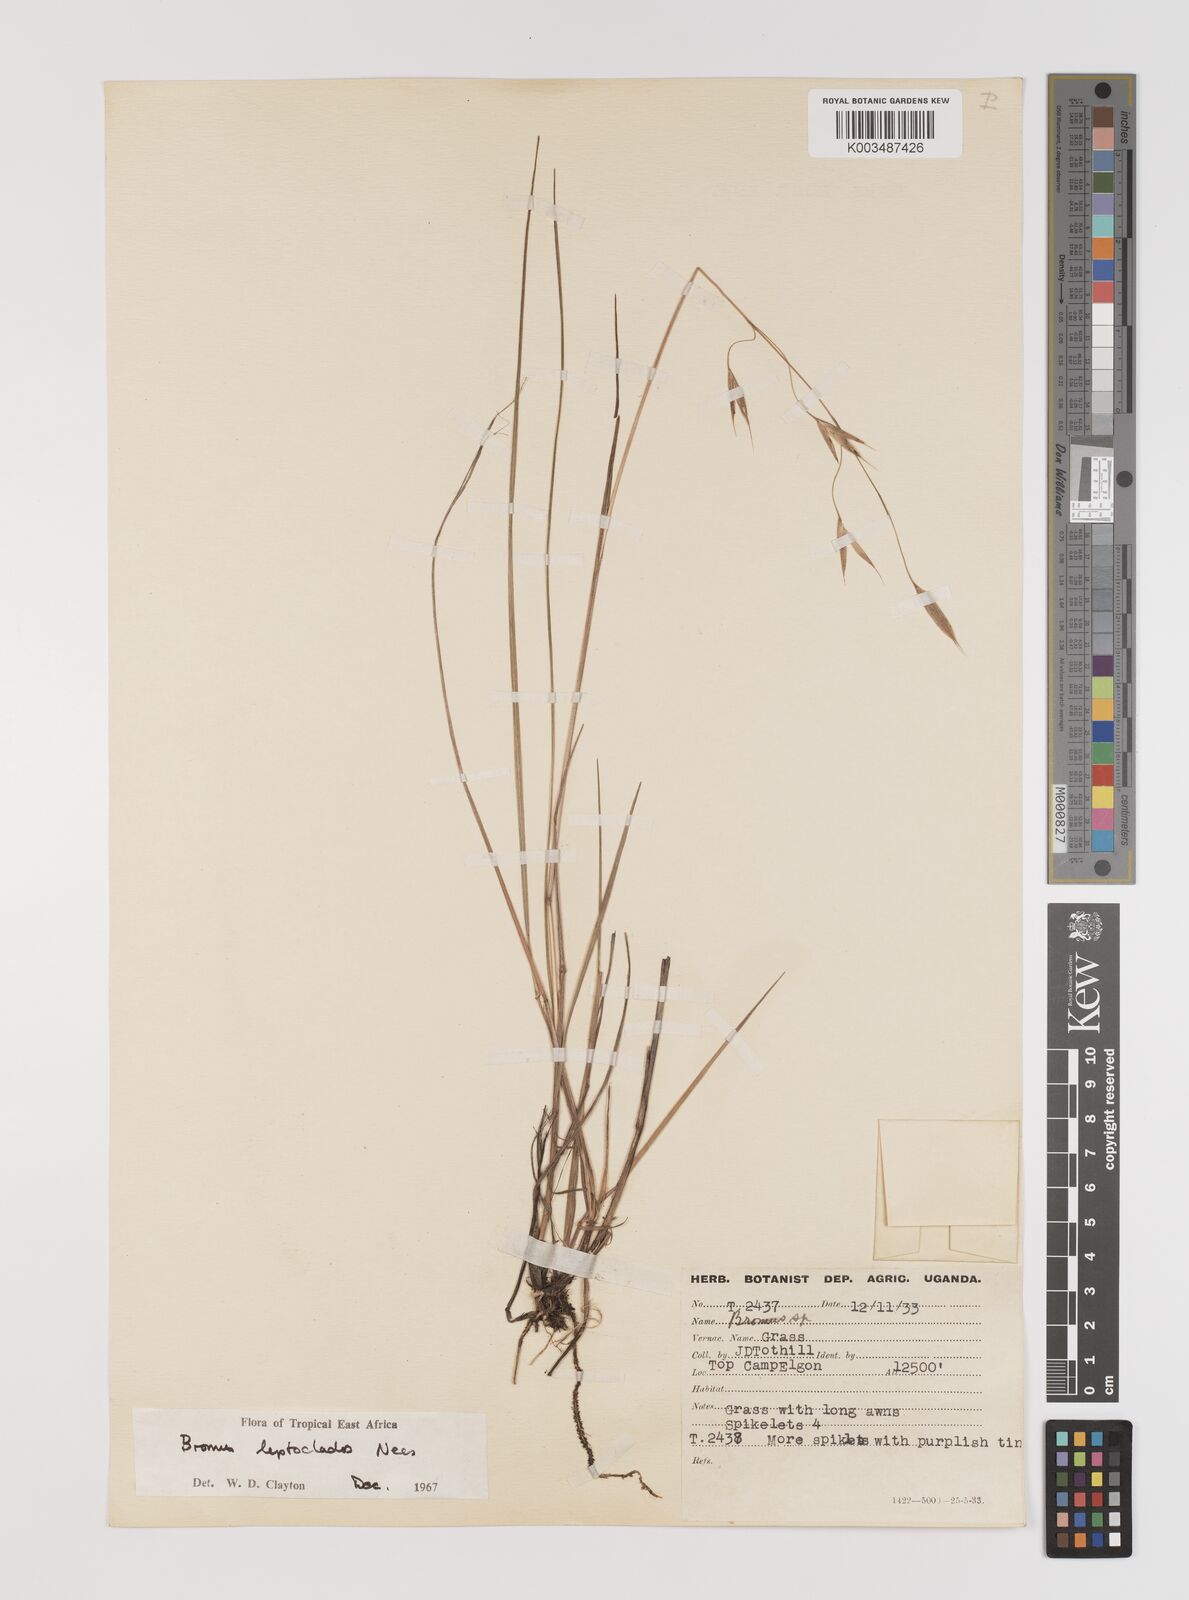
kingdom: Plantae
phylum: Tracheophyta
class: Liliopsida
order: Poales
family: Poaceae
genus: Bromus
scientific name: Bromus leptoclados
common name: Mountain bromegrass
